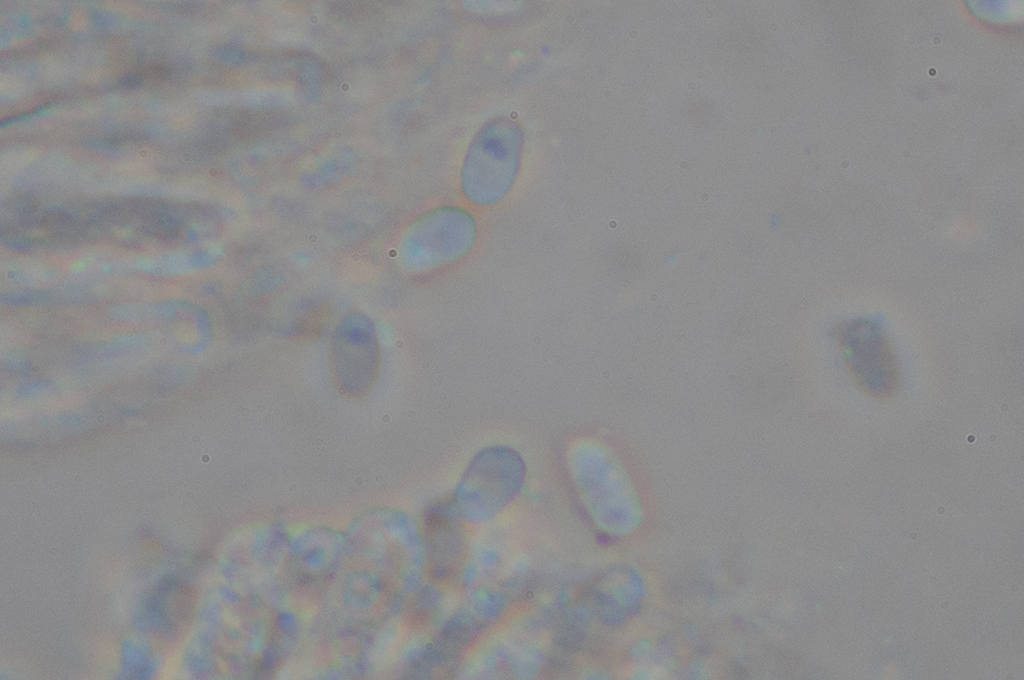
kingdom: Fungi
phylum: Basidiomycota
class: Agaricomycetes
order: Agaricales
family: Lyophyllaceae
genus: Tephrocybe
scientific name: Tephrocybe mephitica
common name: kit-gråblad
